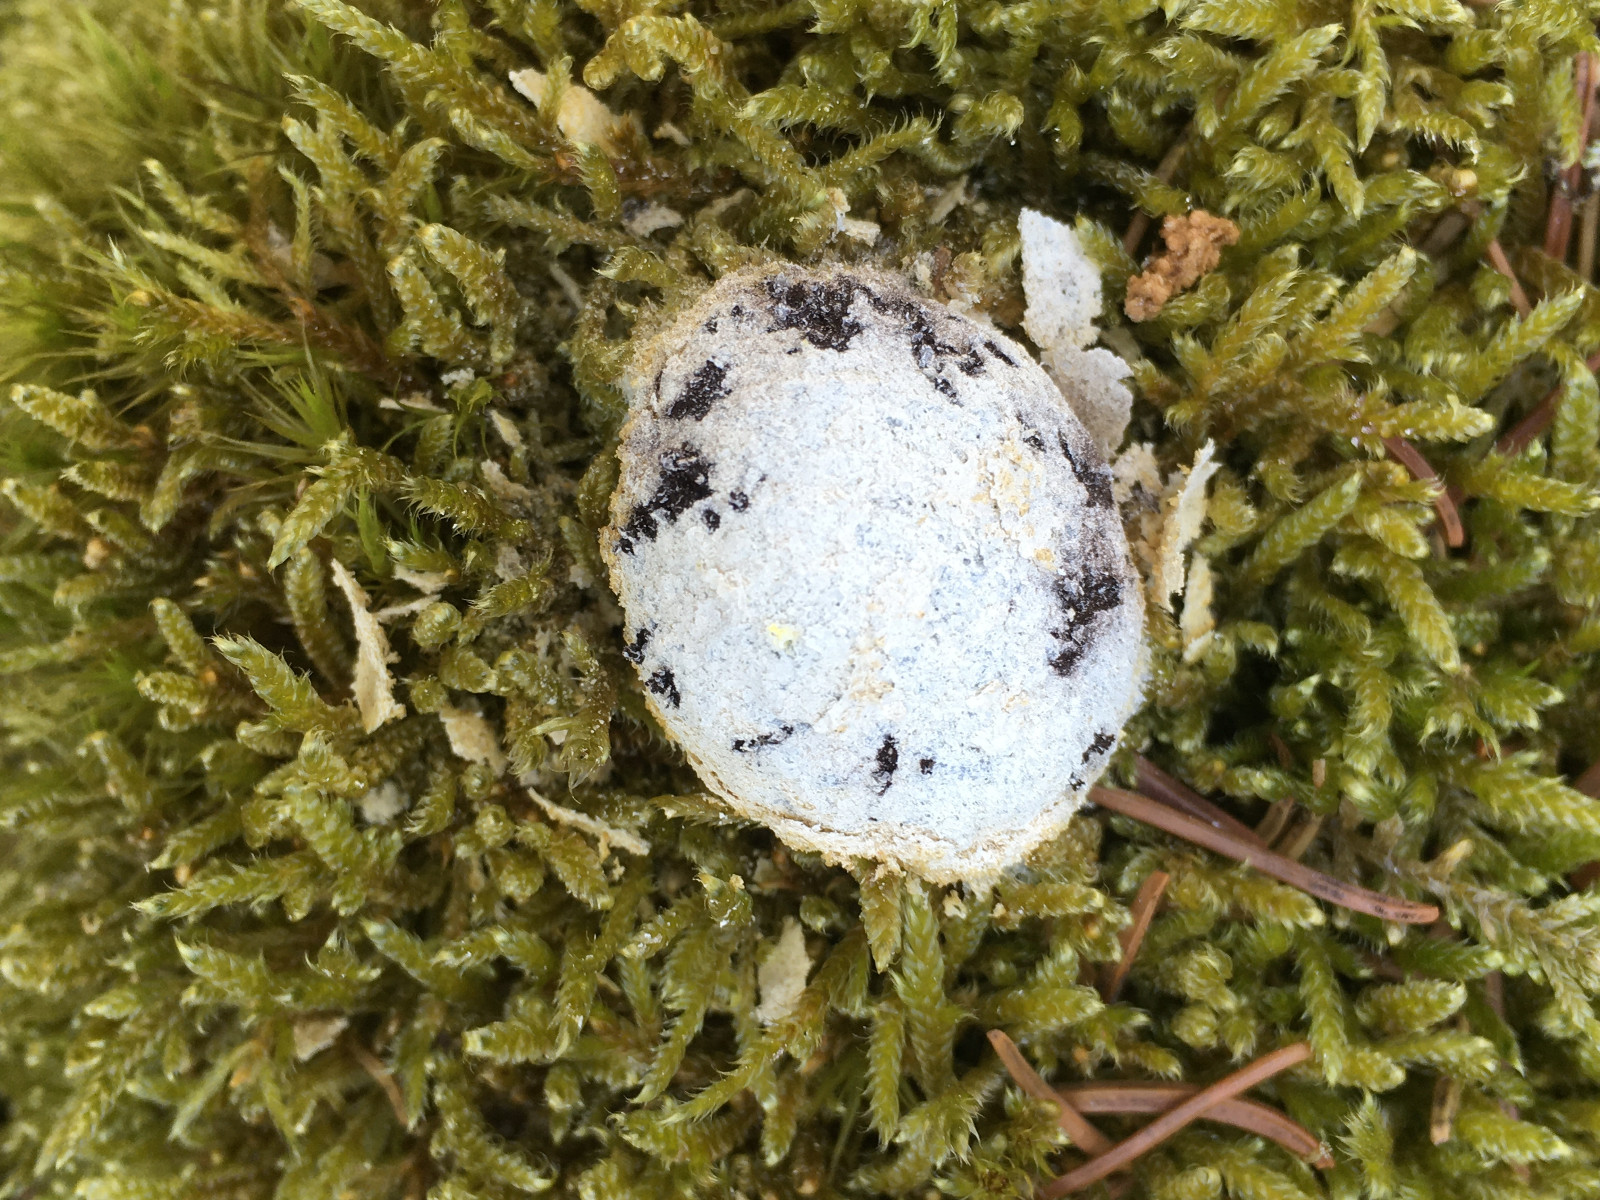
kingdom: Protozoa
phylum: Mycetozoa
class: Myxomycetes
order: Cribrariales
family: Tubiferaceae
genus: Reticularia
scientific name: Reticularia lycoperdon
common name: skinnende støvpude
